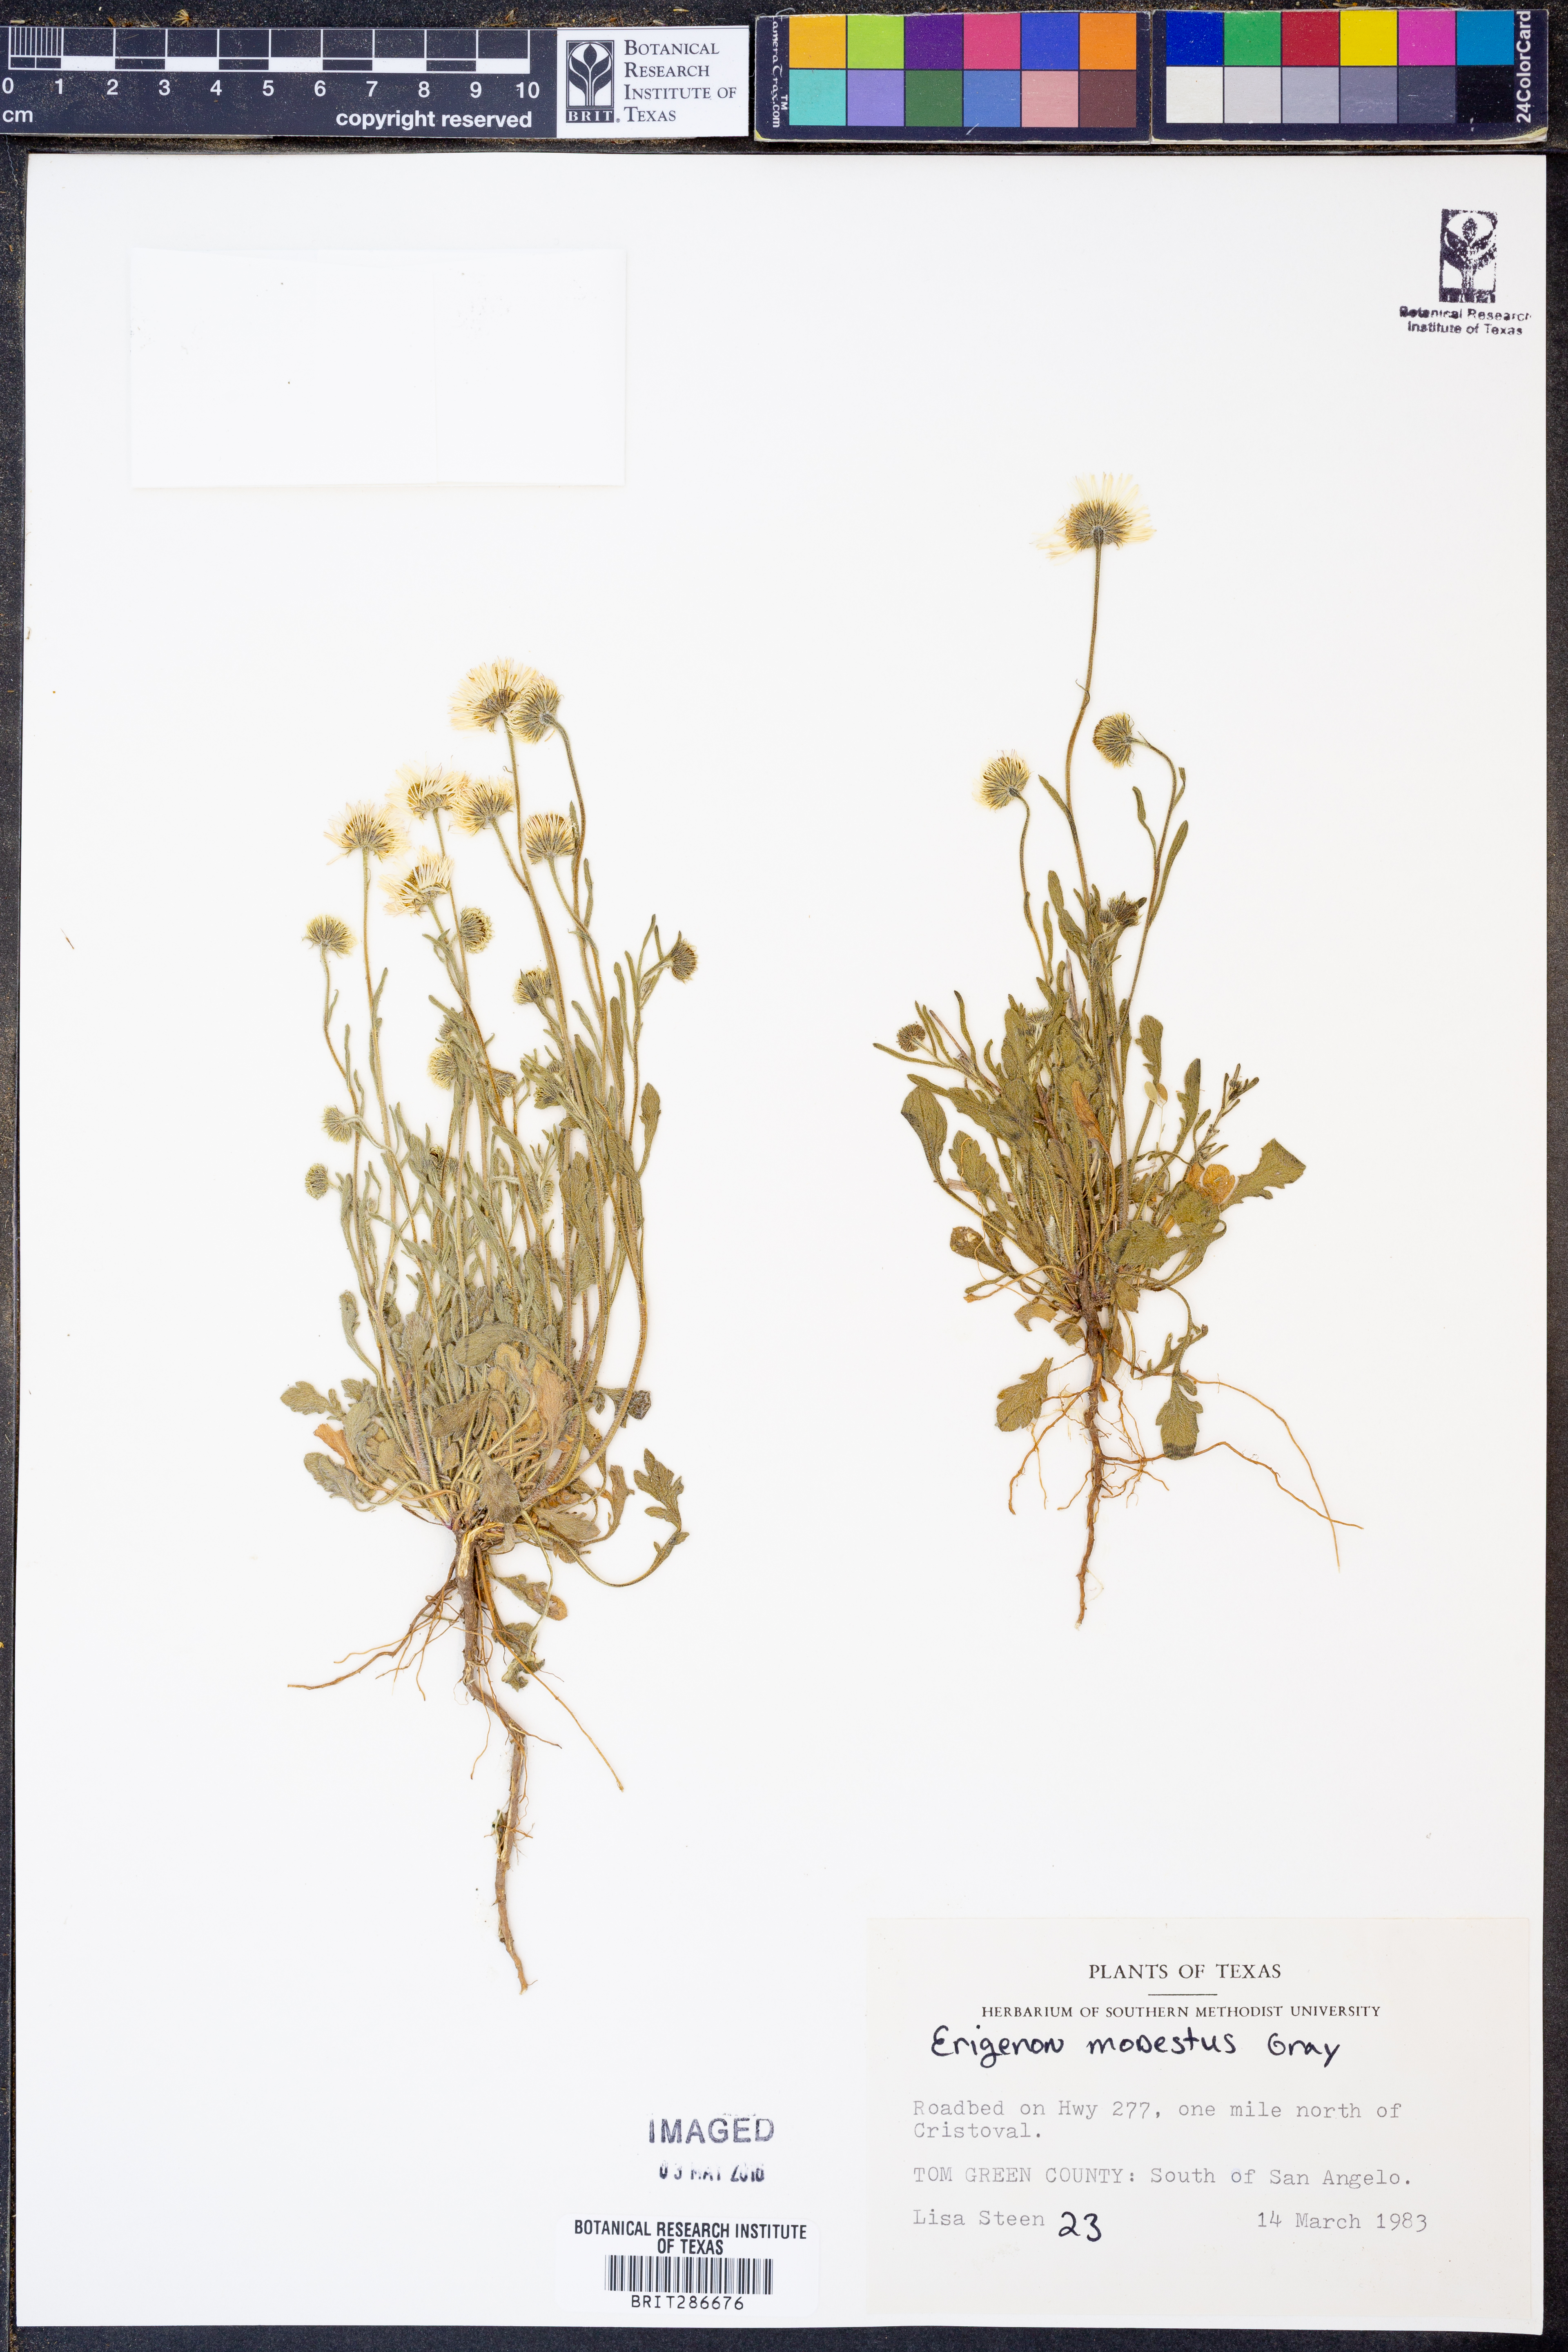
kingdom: Plantae
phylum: Tracheophyta
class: Magnoliopsida
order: Asterales
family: Asteraceae
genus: Erigeron
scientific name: Erigeron modestus
